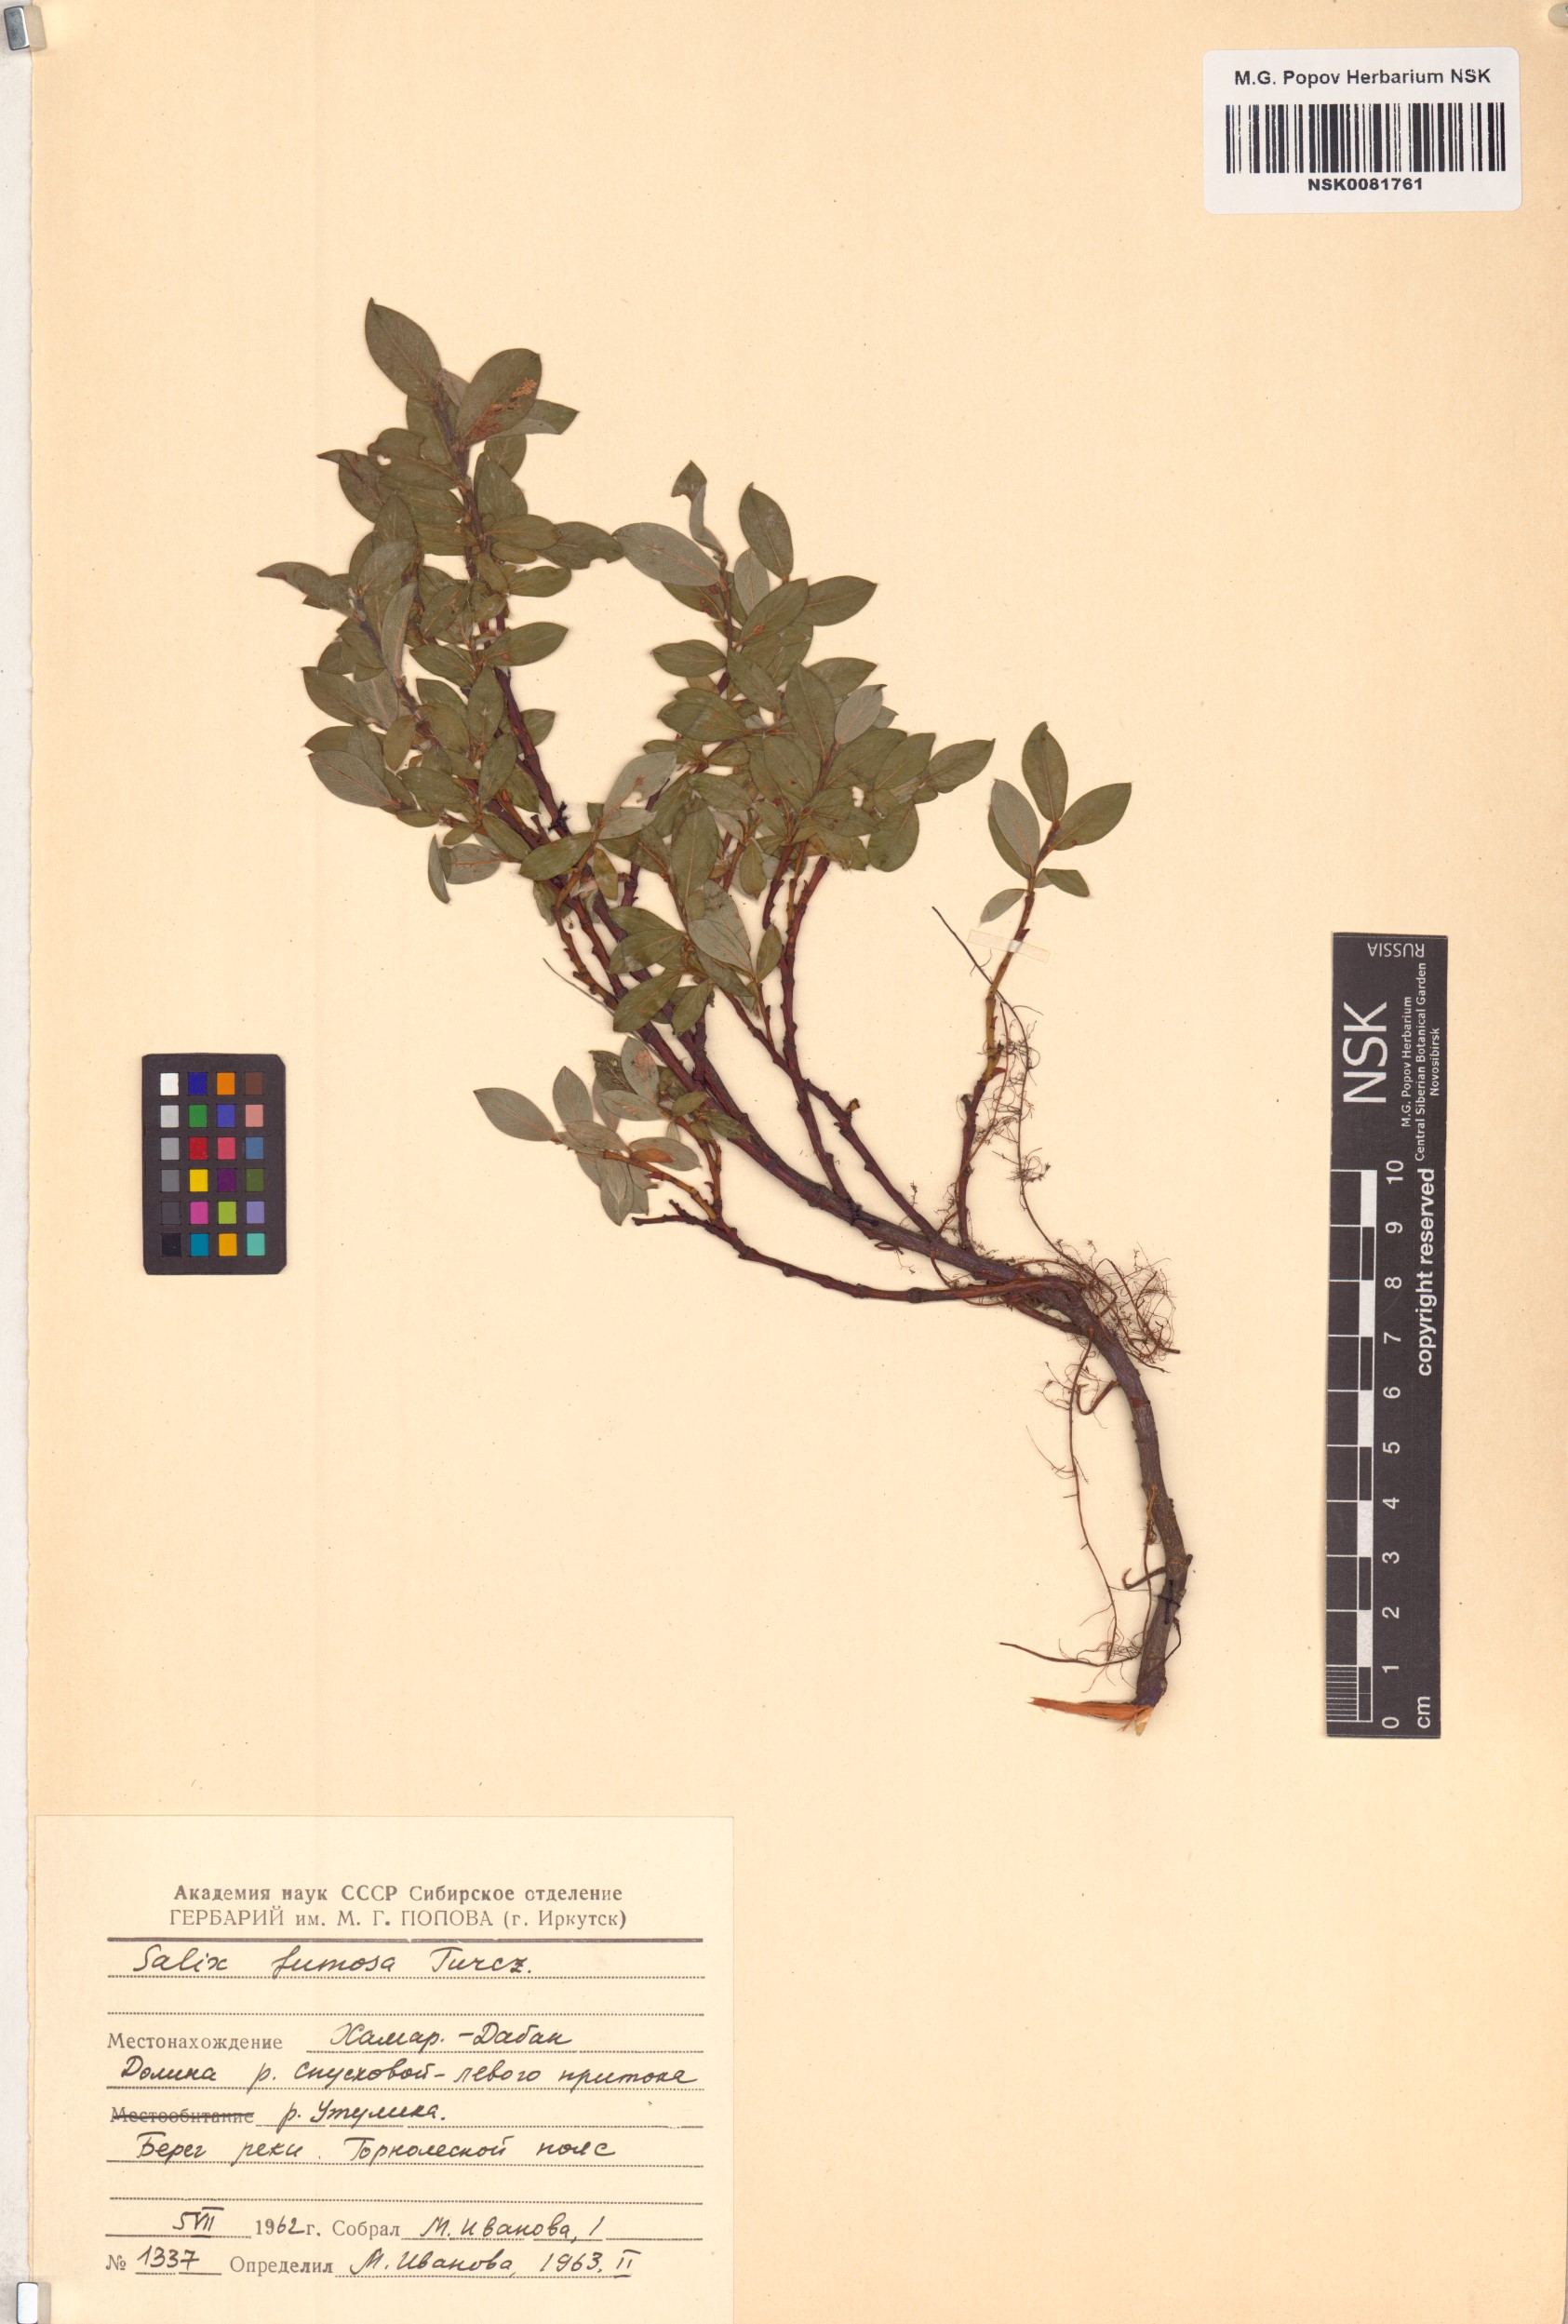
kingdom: Plantae
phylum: Tracheophyta
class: Magnoliopsida
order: Malpighiales
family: Salicaceae
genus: Salix
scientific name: Salix saxatilis
